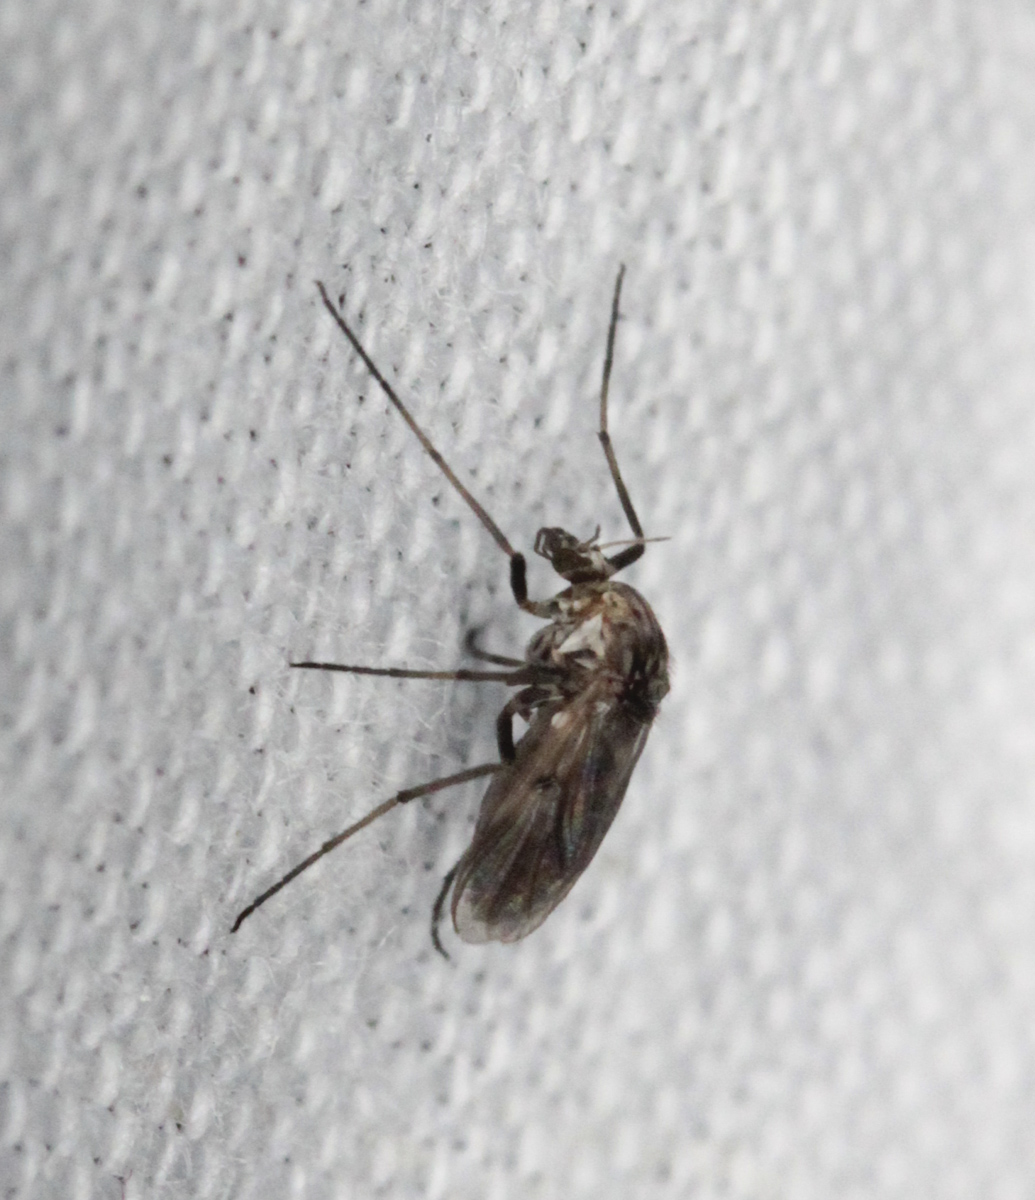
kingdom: Animalia
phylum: Arthropoda
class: Insecta
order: Diptera
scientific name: Diptera
